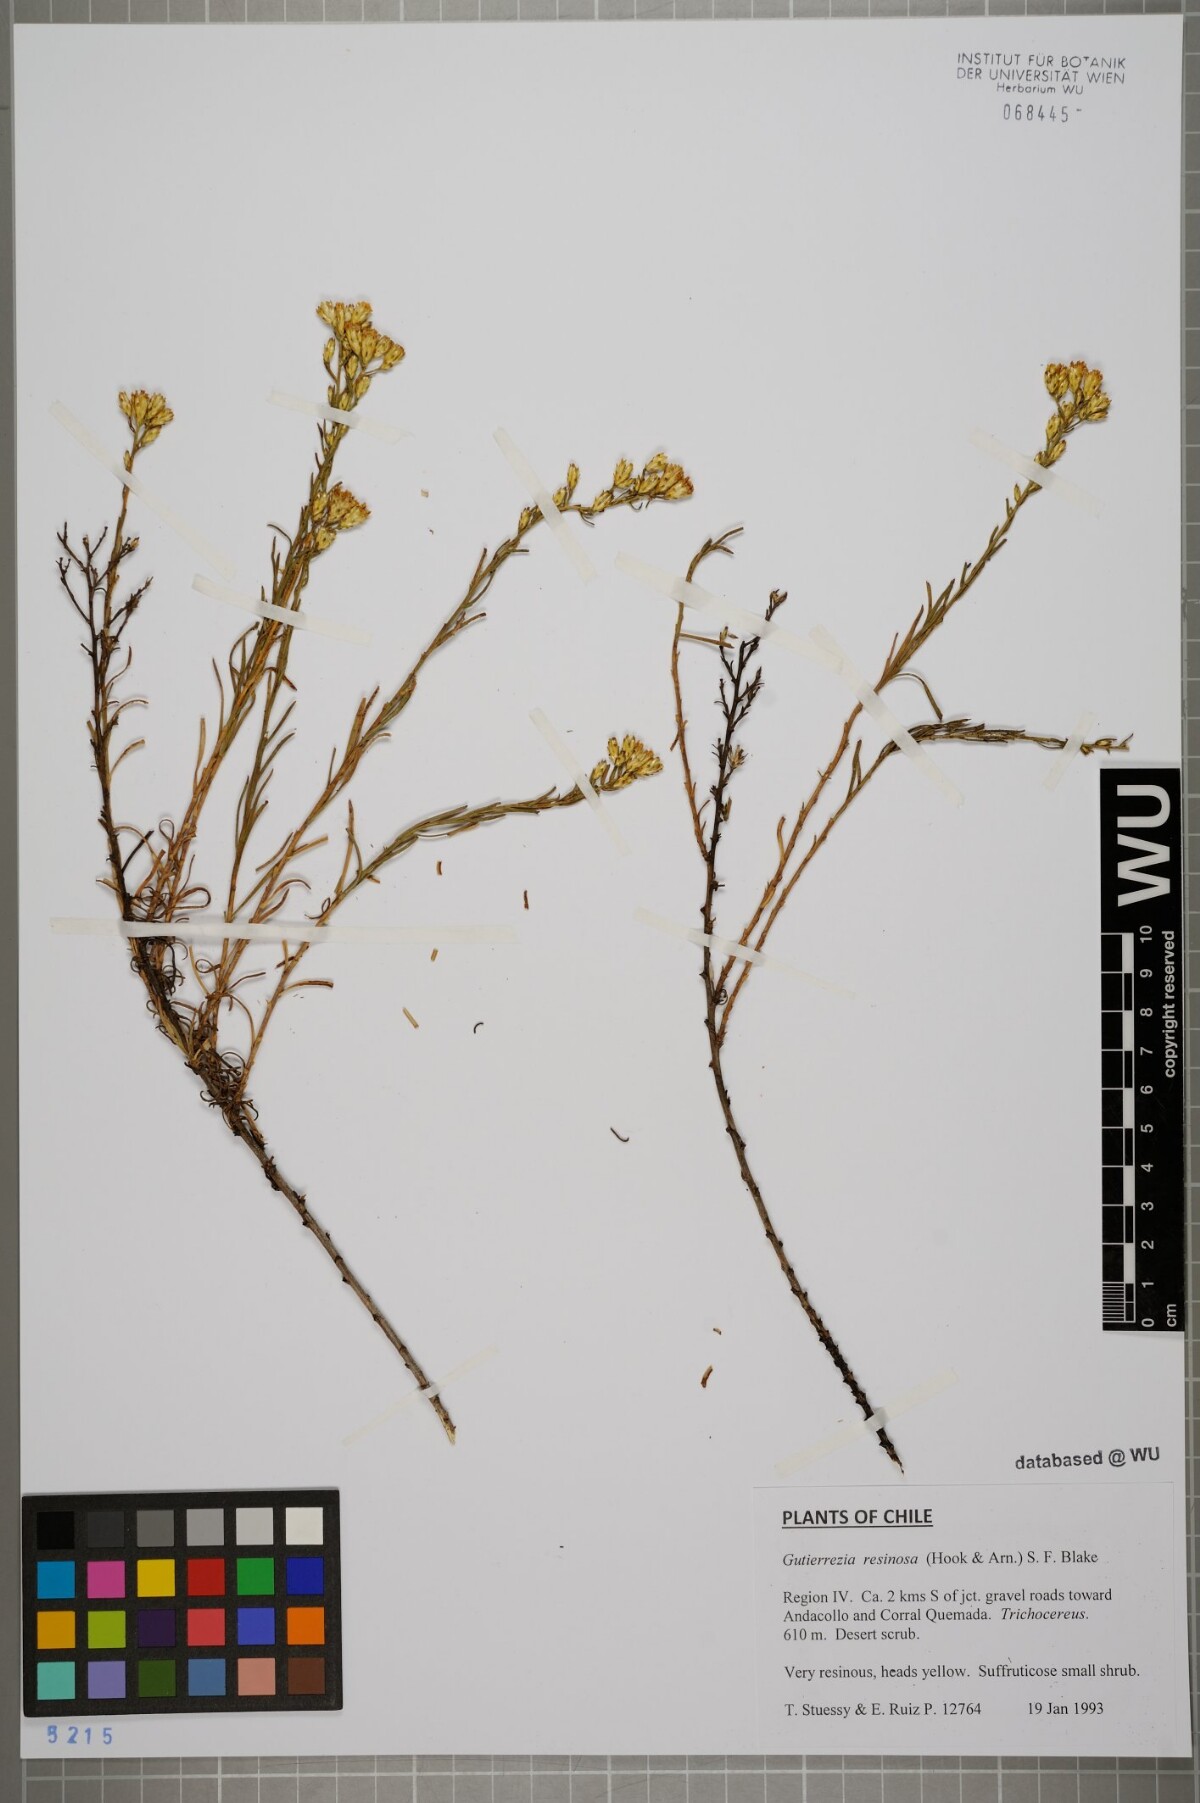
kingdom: Plantae
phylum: Tracheophyta
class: Magnoliopsida
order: Asterales
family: Asteraceae
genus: Gutierrezia
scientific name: Gutierrezia resinosa
